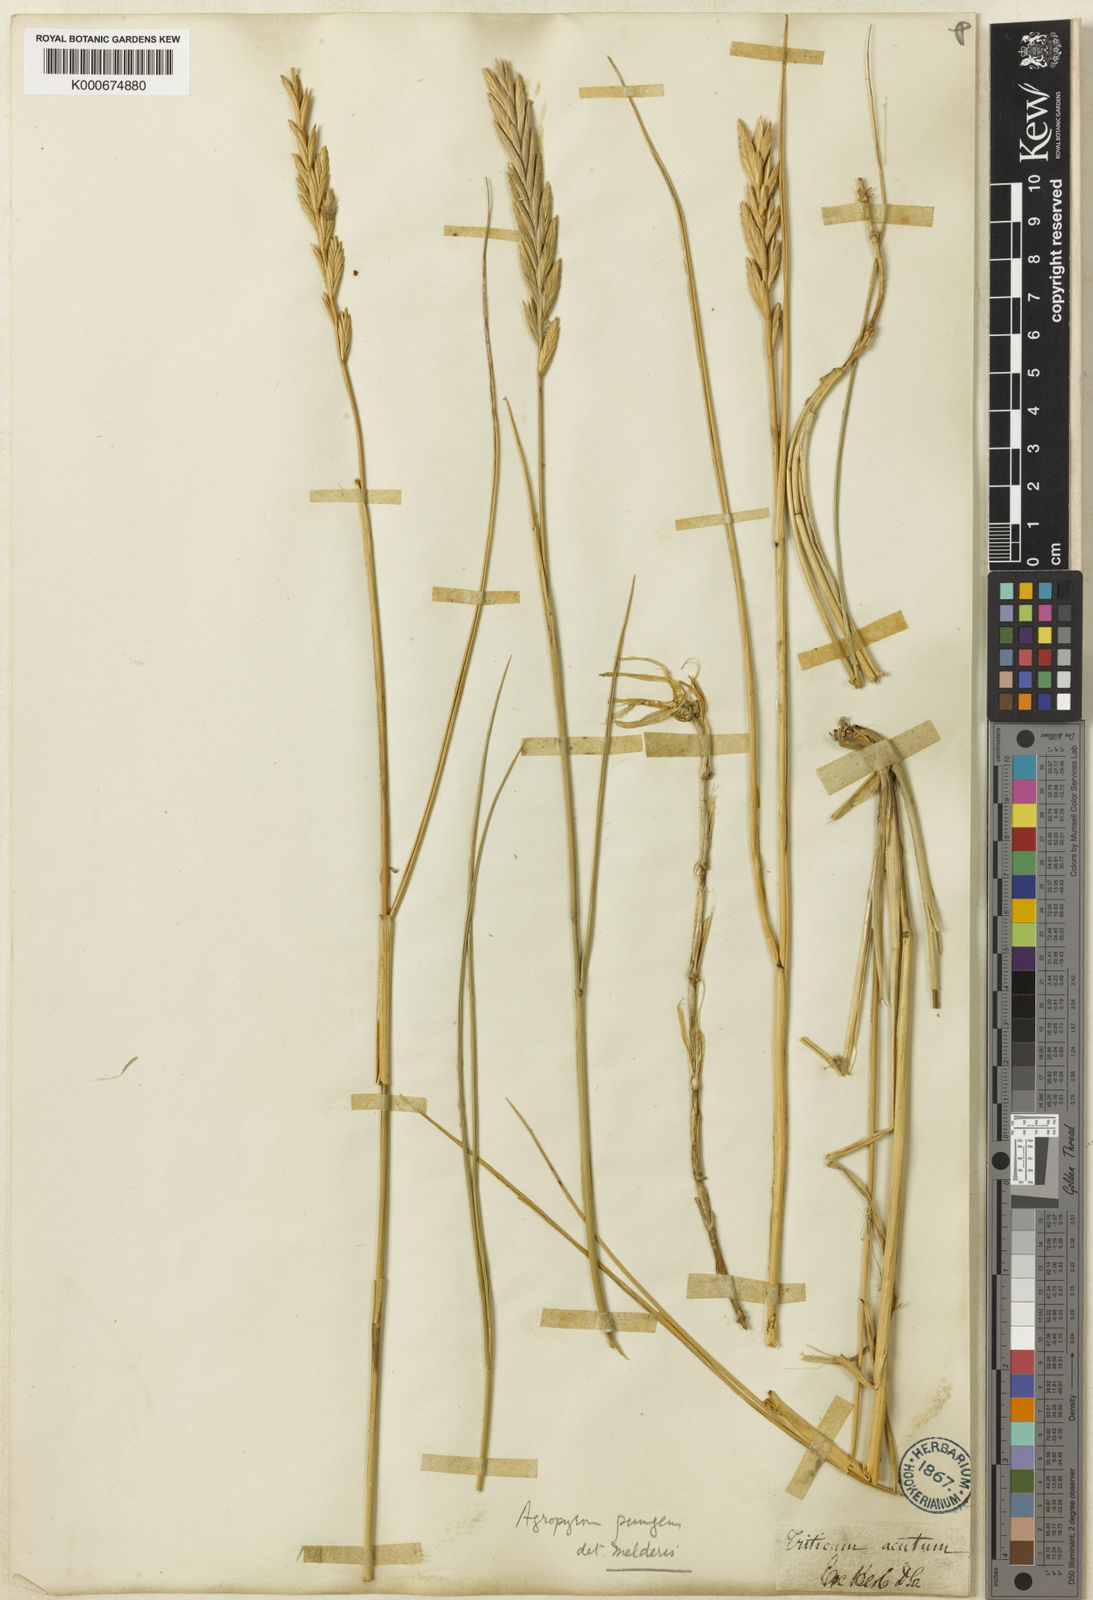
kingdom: Plantae
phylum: Tracheophyta
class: Liliopsida
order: Poales
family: Poaceae
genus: Elymus
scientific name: Elymus
